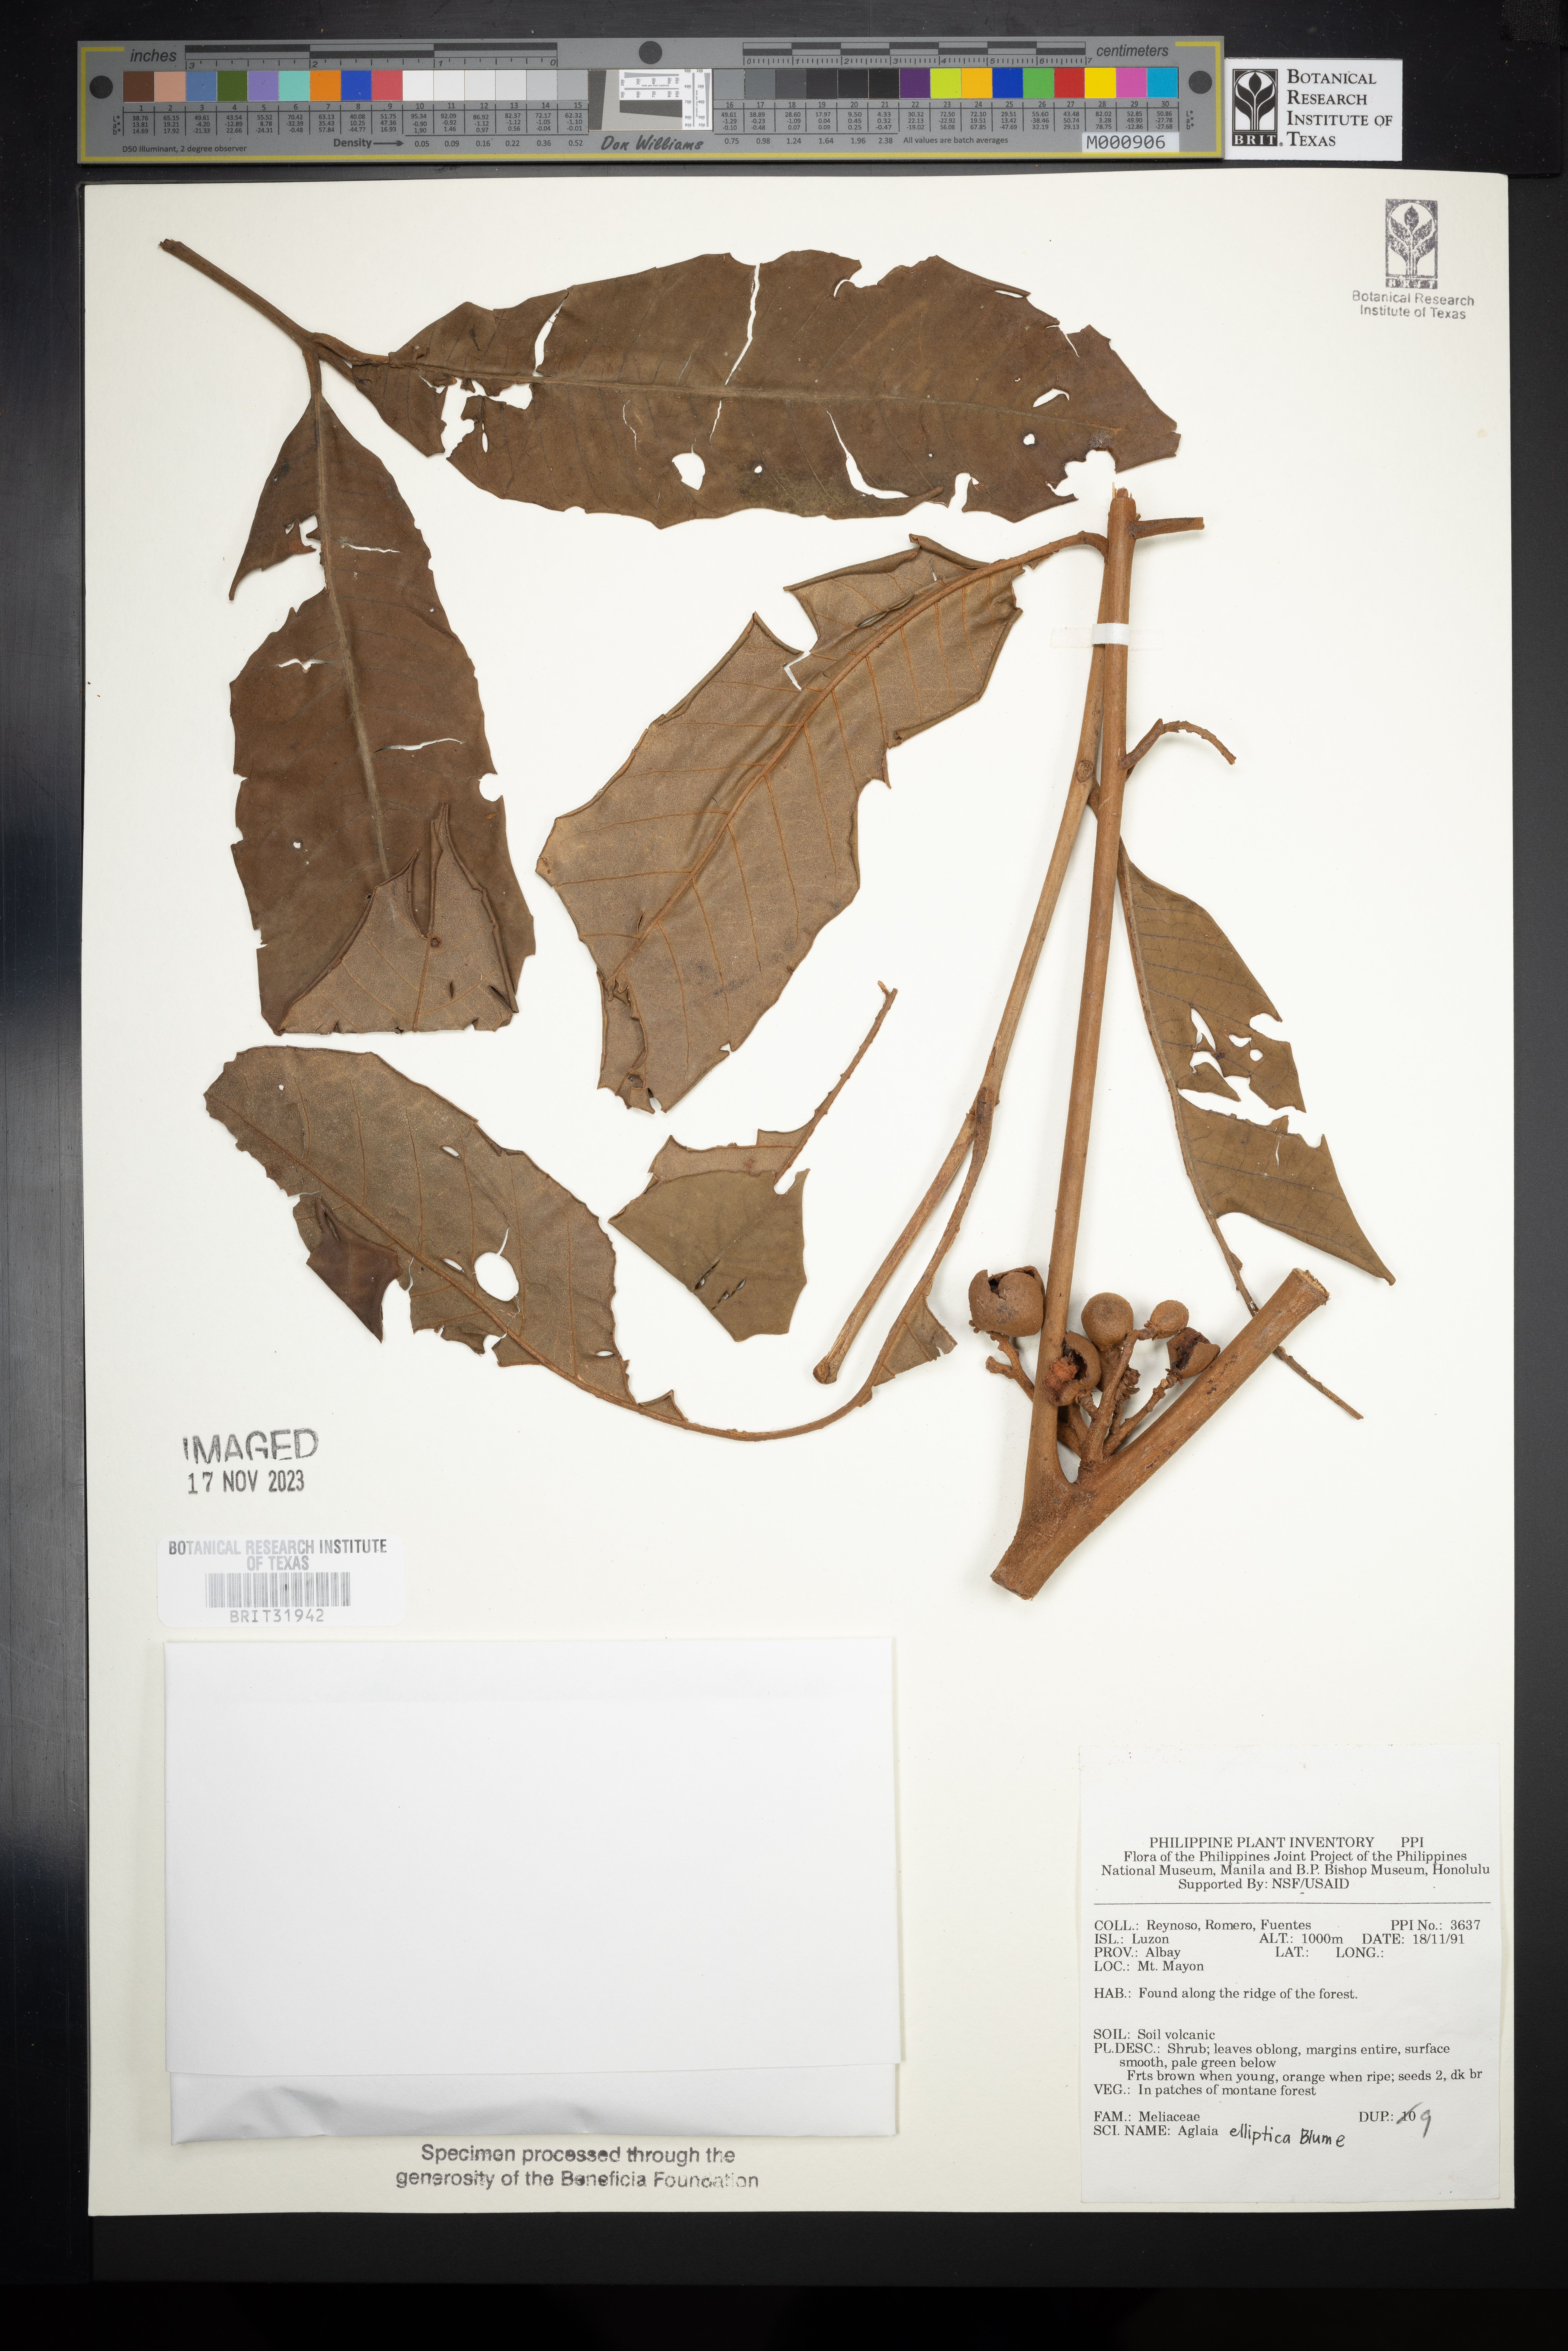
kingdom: Plantae
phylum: Tracheophyta
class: Magnoliopsida
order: Sapindales
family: Meliaceae
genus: Aglaia
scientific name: Aglaia elliptica
